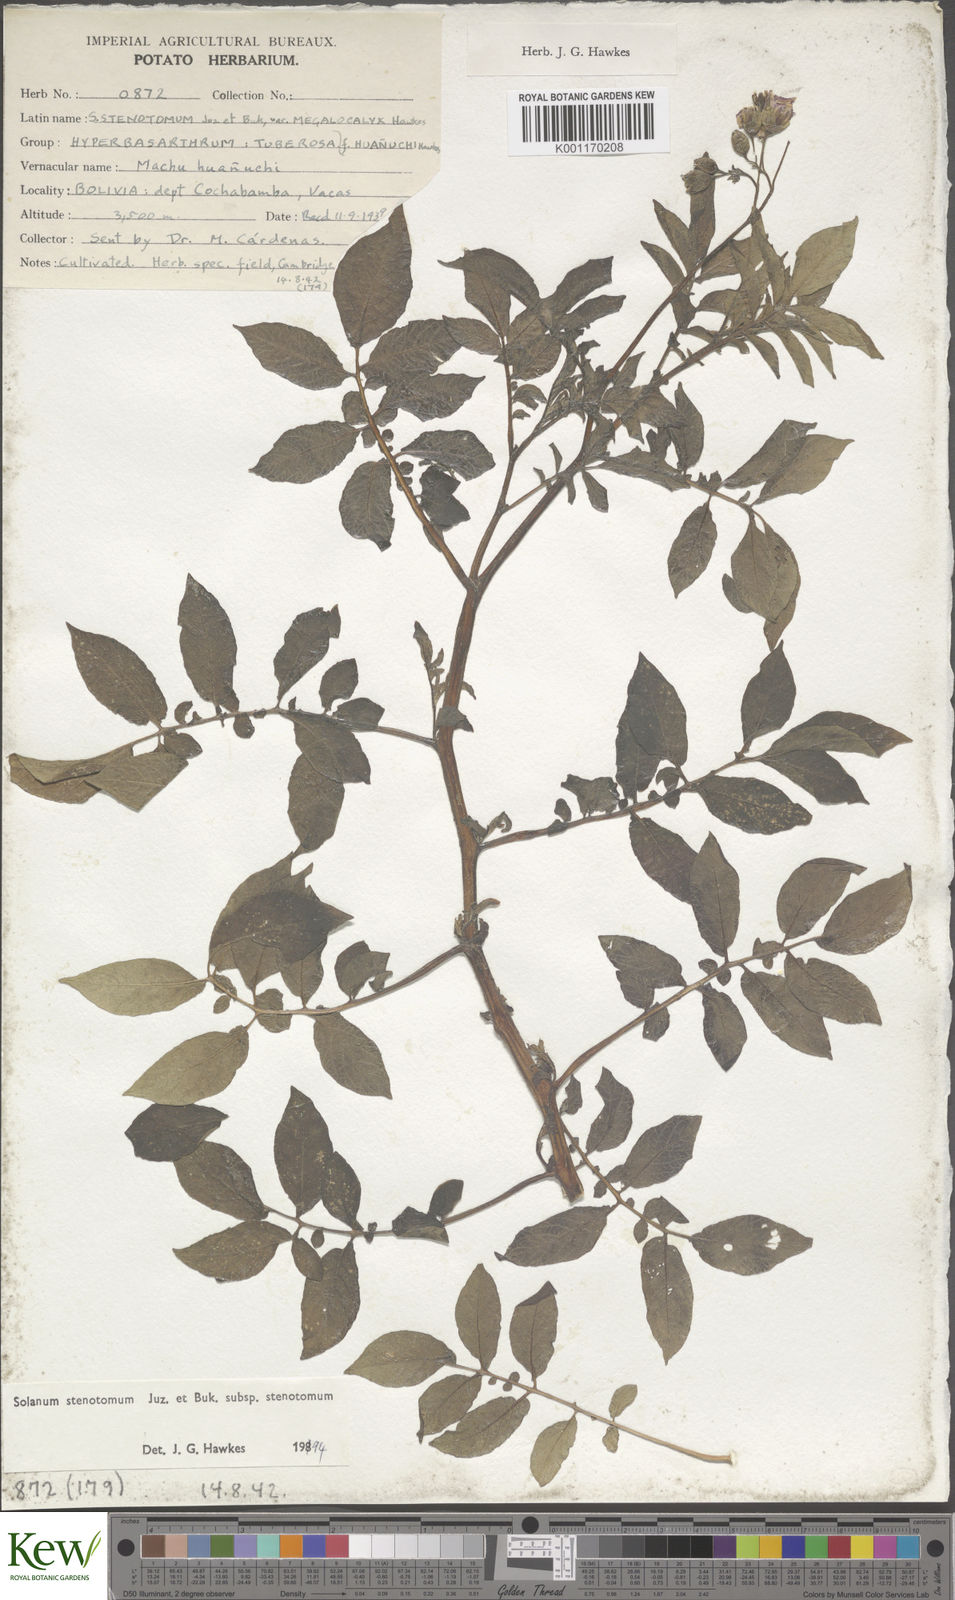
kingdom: Plantae
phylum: Tracheophyta
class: Magnoliopsida
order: Solanales
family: Solanaceae
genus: Solanum
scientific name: Solanum tuberosum
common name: Potato
